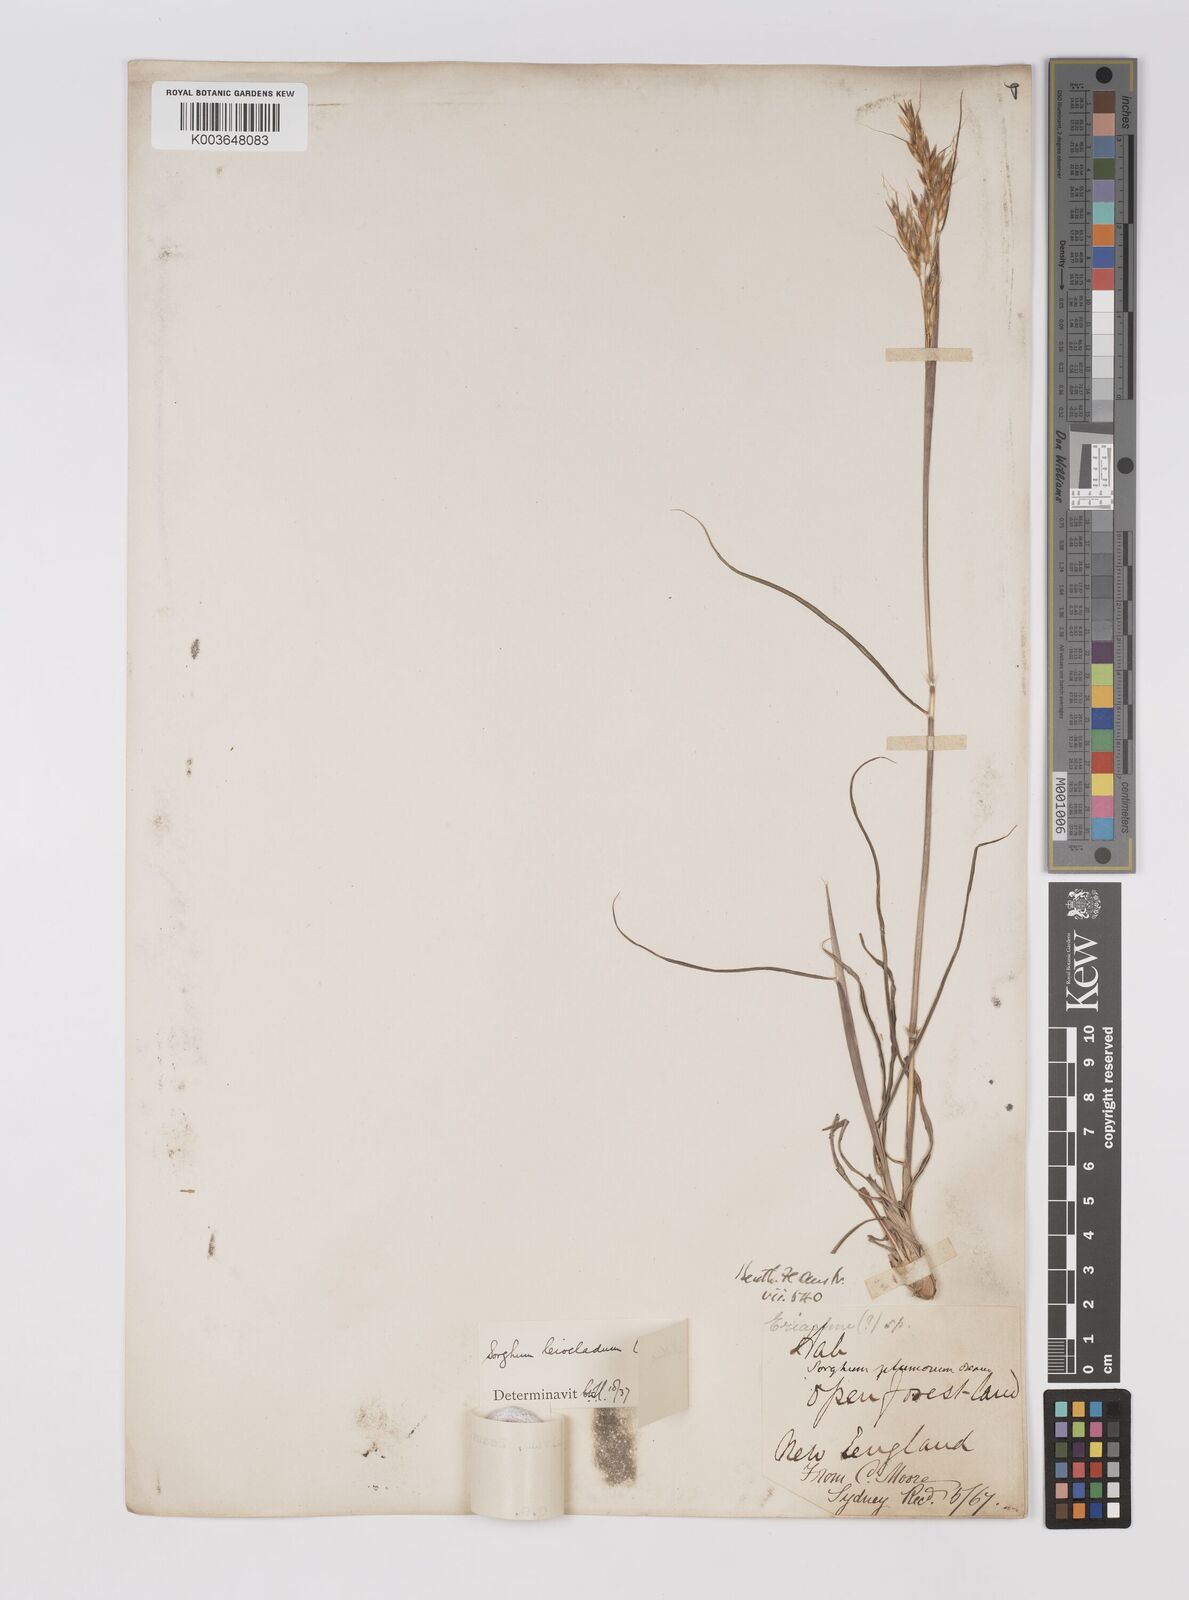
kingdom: Plantae
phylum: Tracheophyta
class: Liliopsida
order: Poales
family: Poaceae
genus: Sarga
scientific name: Sarga leioclada
